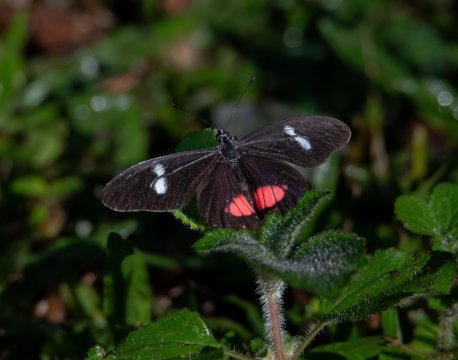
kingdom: Animalia
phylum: Arthropoda
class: Insecta
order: Lepidoptera
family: Pieridae
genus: Archonias
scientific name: Archonias brassolis
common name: Cattleheart White
